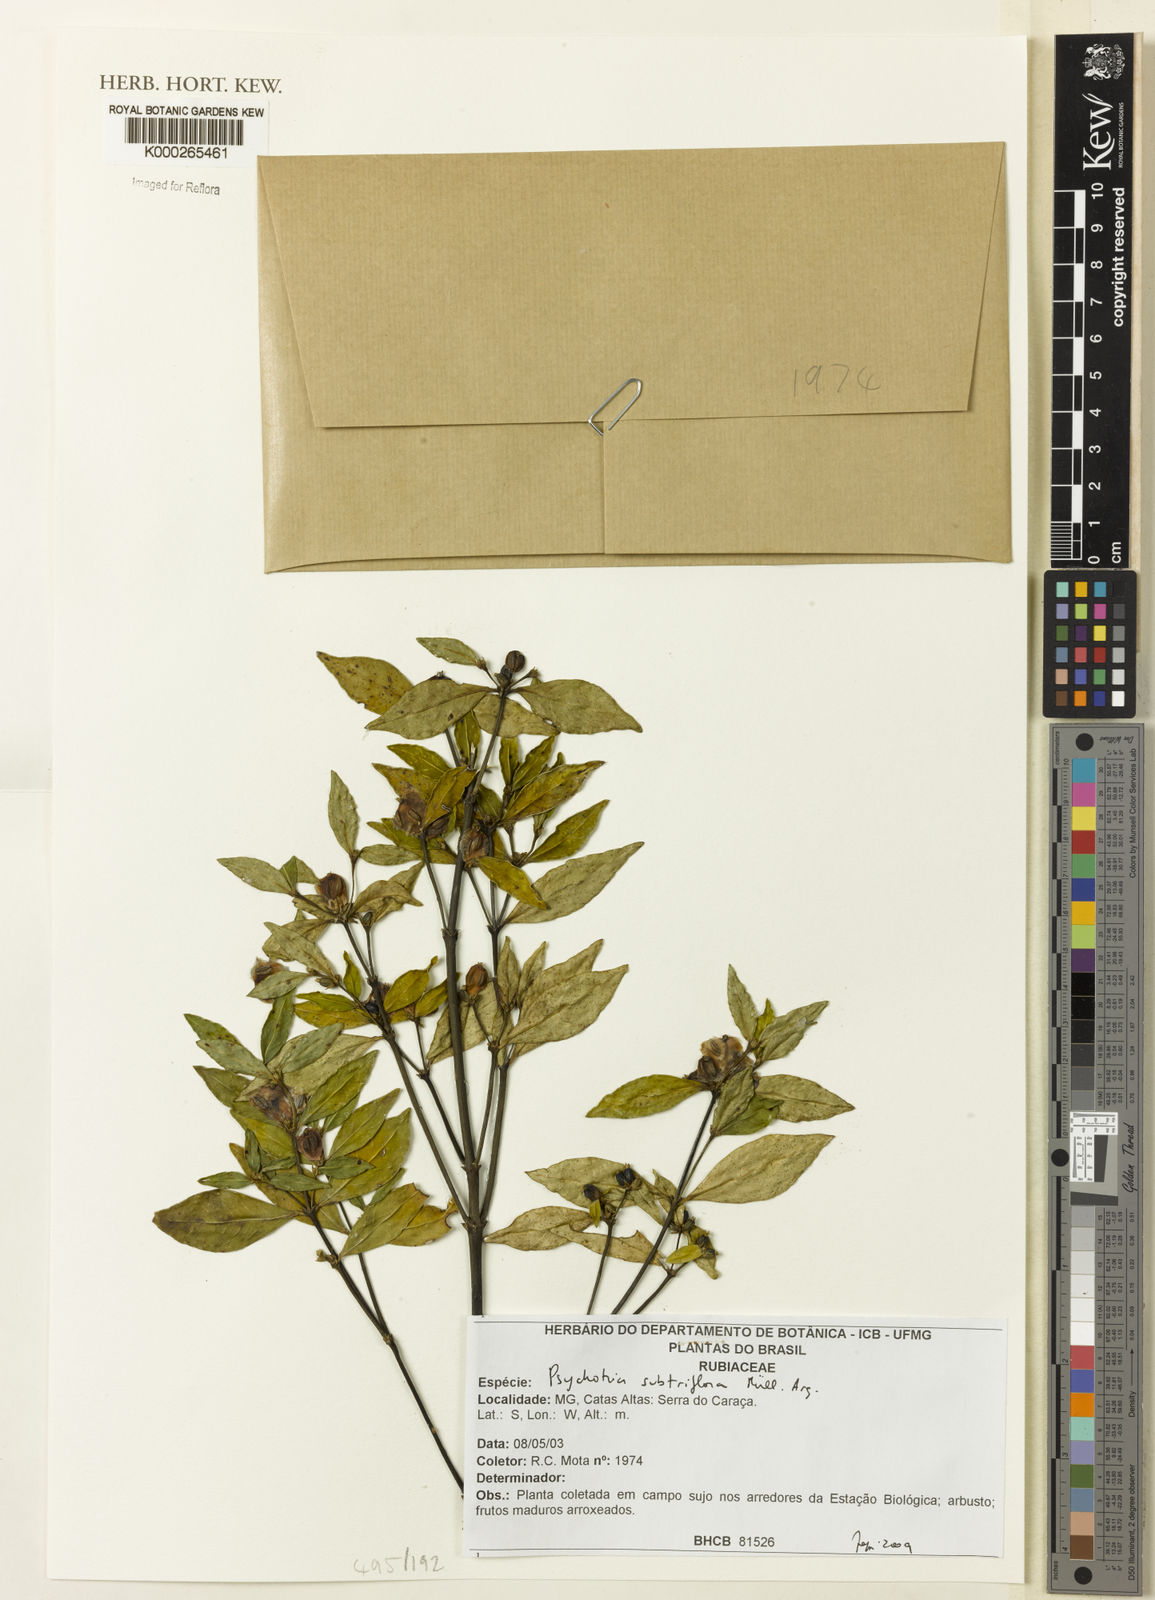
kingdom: Plantae
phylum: Tracheophyta
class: Magnoliopsida
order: Gentianales
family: Rubiaceae
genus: Psychotria
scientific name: Psychotria
